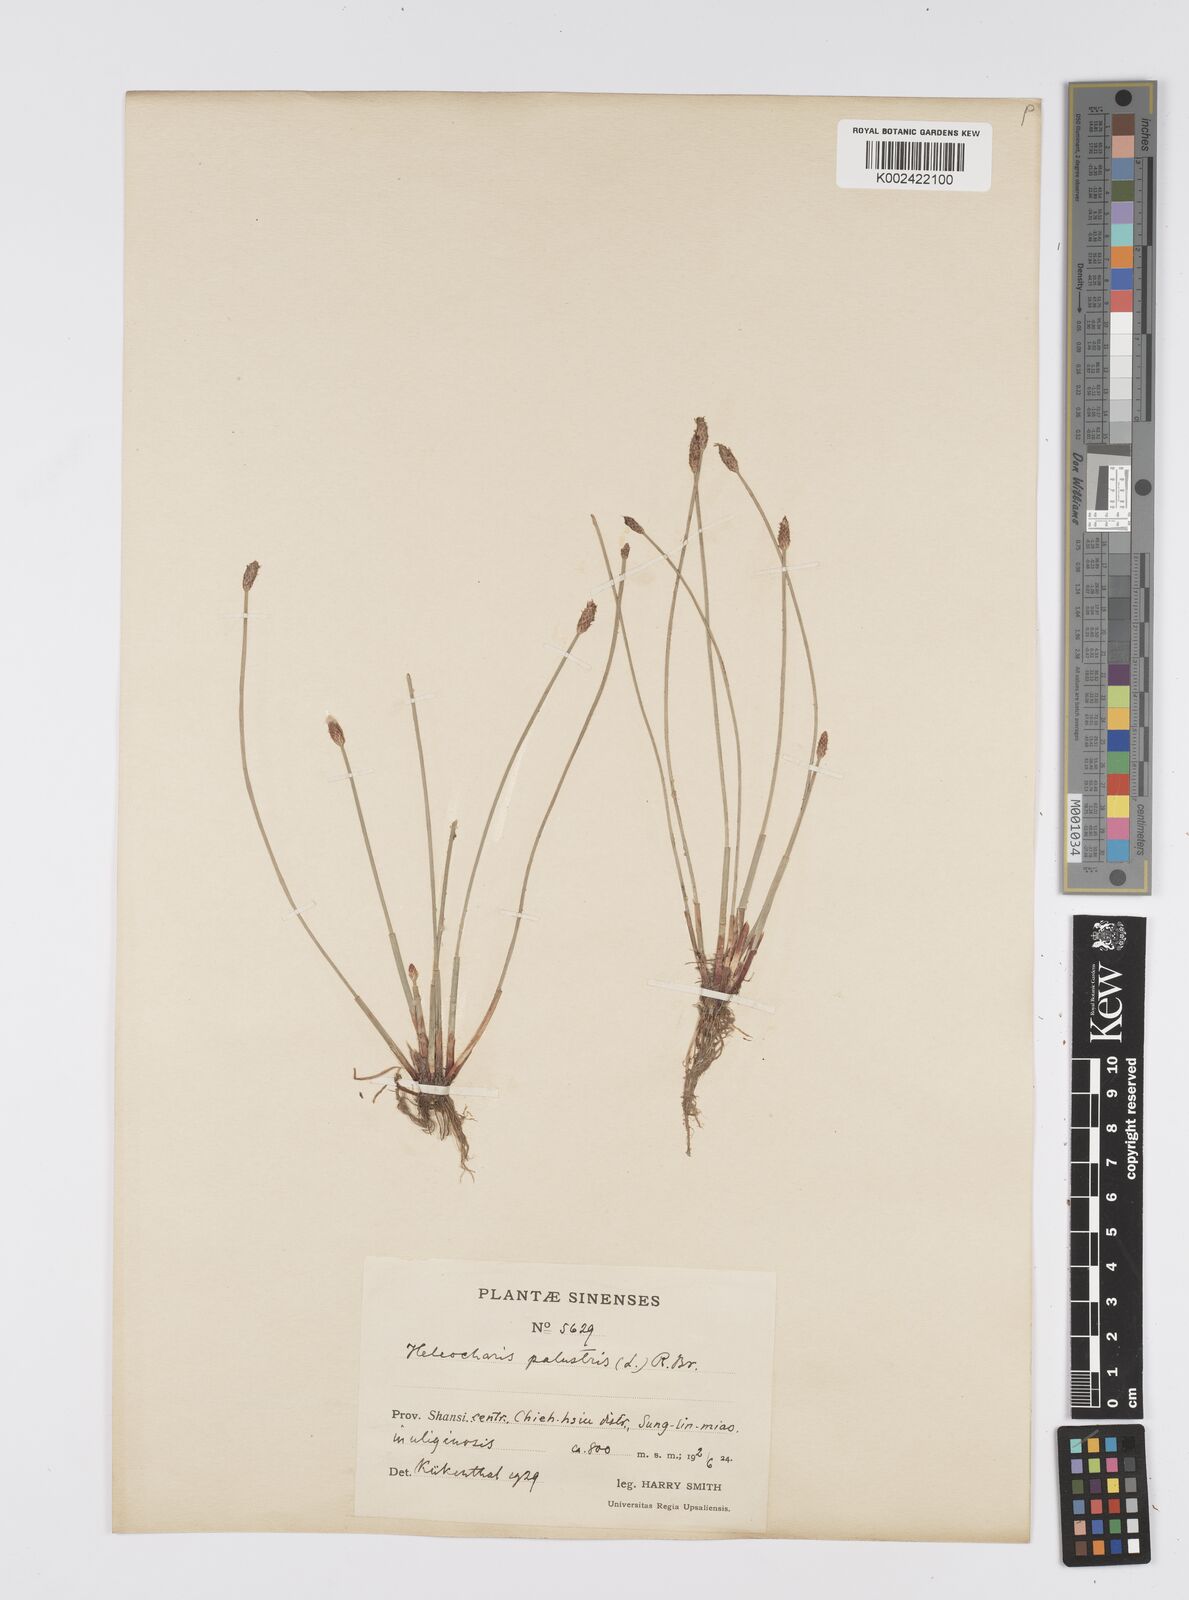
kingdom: Plantae
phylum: Tracheophyta
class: Liliopsida
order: Poales
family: Cyperaceae
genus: Eleocharis
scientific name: Eleocharis palustris
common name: Common spike-rush
